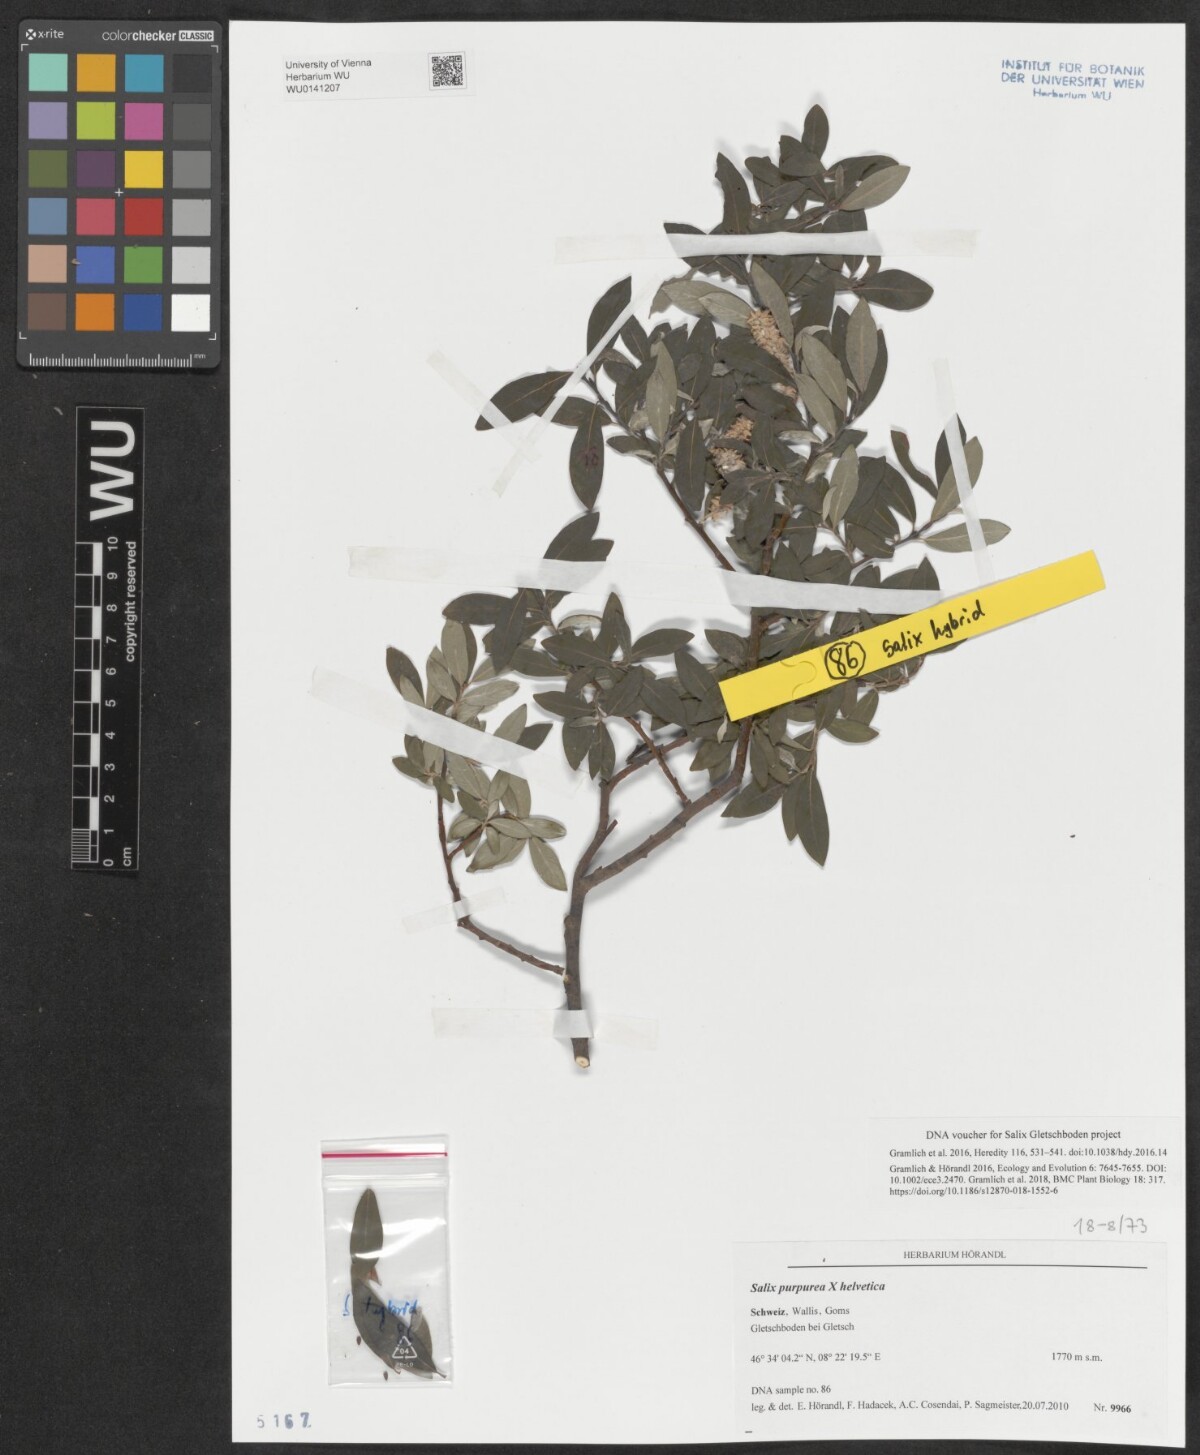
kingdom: Plantae
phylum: Tracheophyta
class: Magnoliopsida
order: Malpighiales
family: Salicaceae
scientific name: Salicaceae
